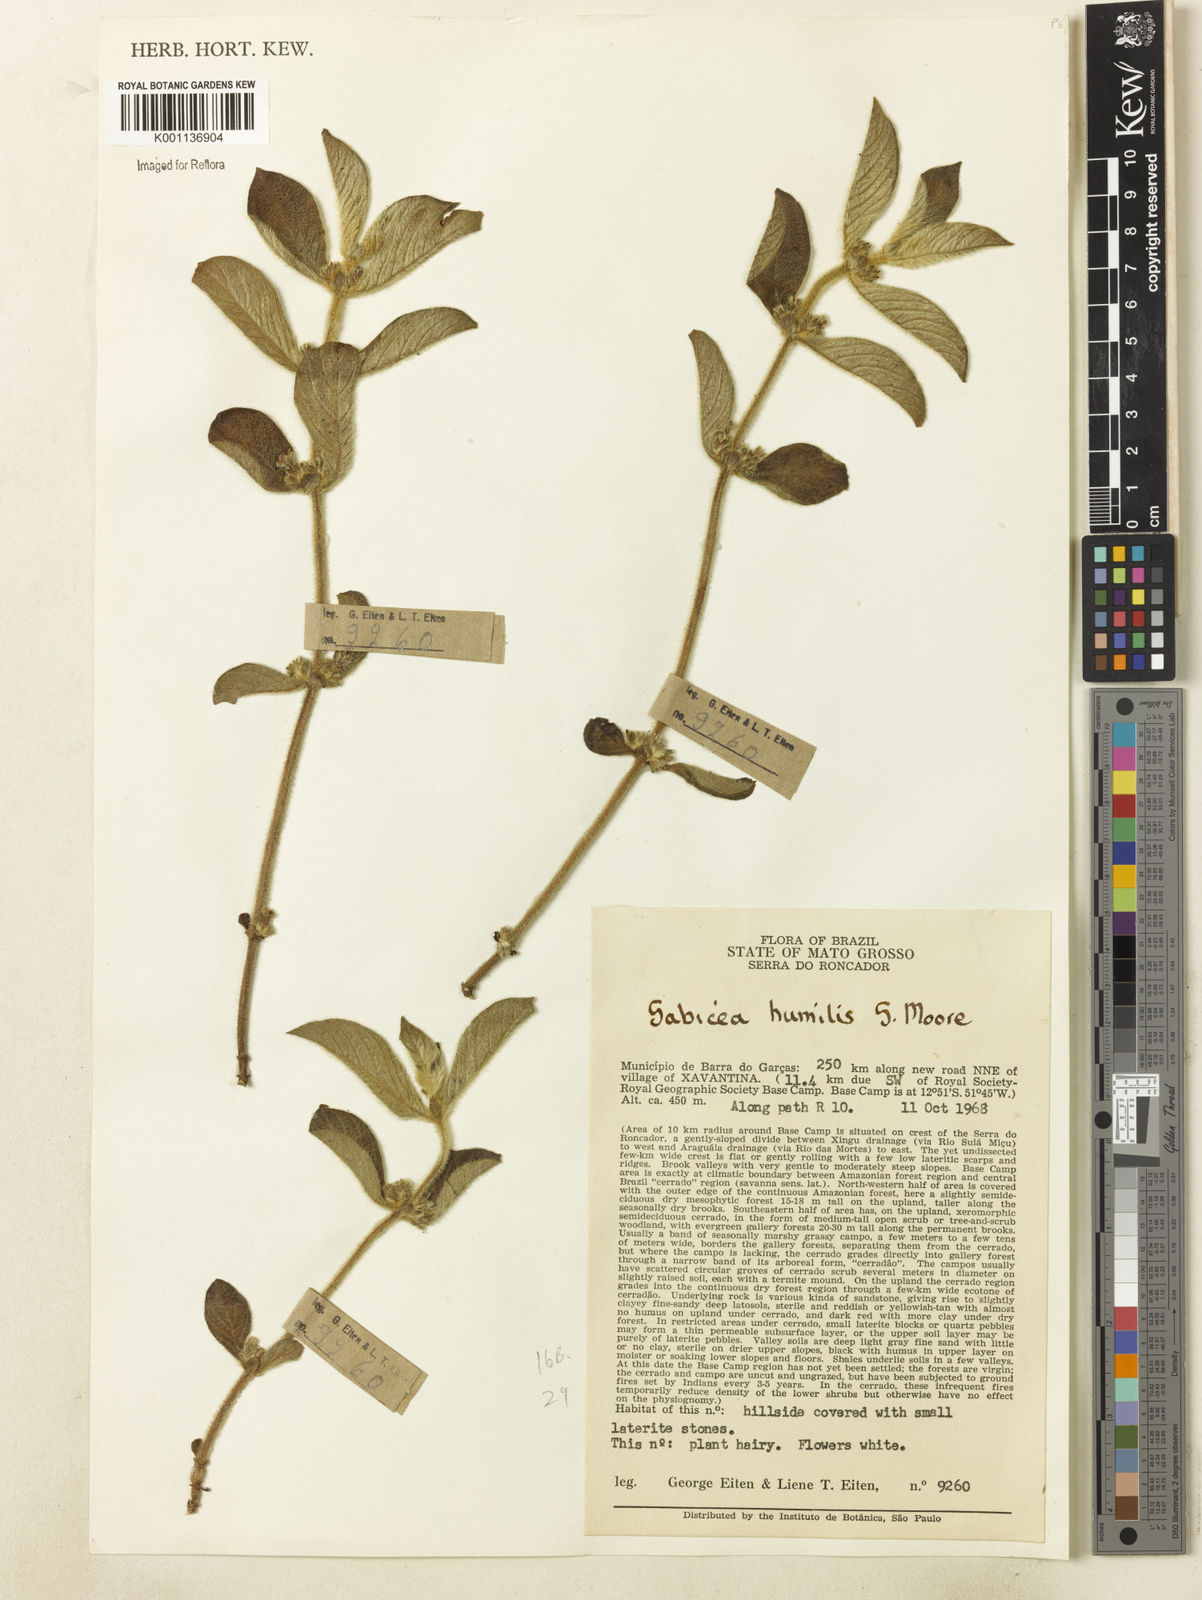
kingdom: Plantae
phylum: Tracheophyta
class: Magnoliopsida
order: Gentianales
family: Rubiaceae
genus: Sabicea
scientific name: Sabicea humilis
